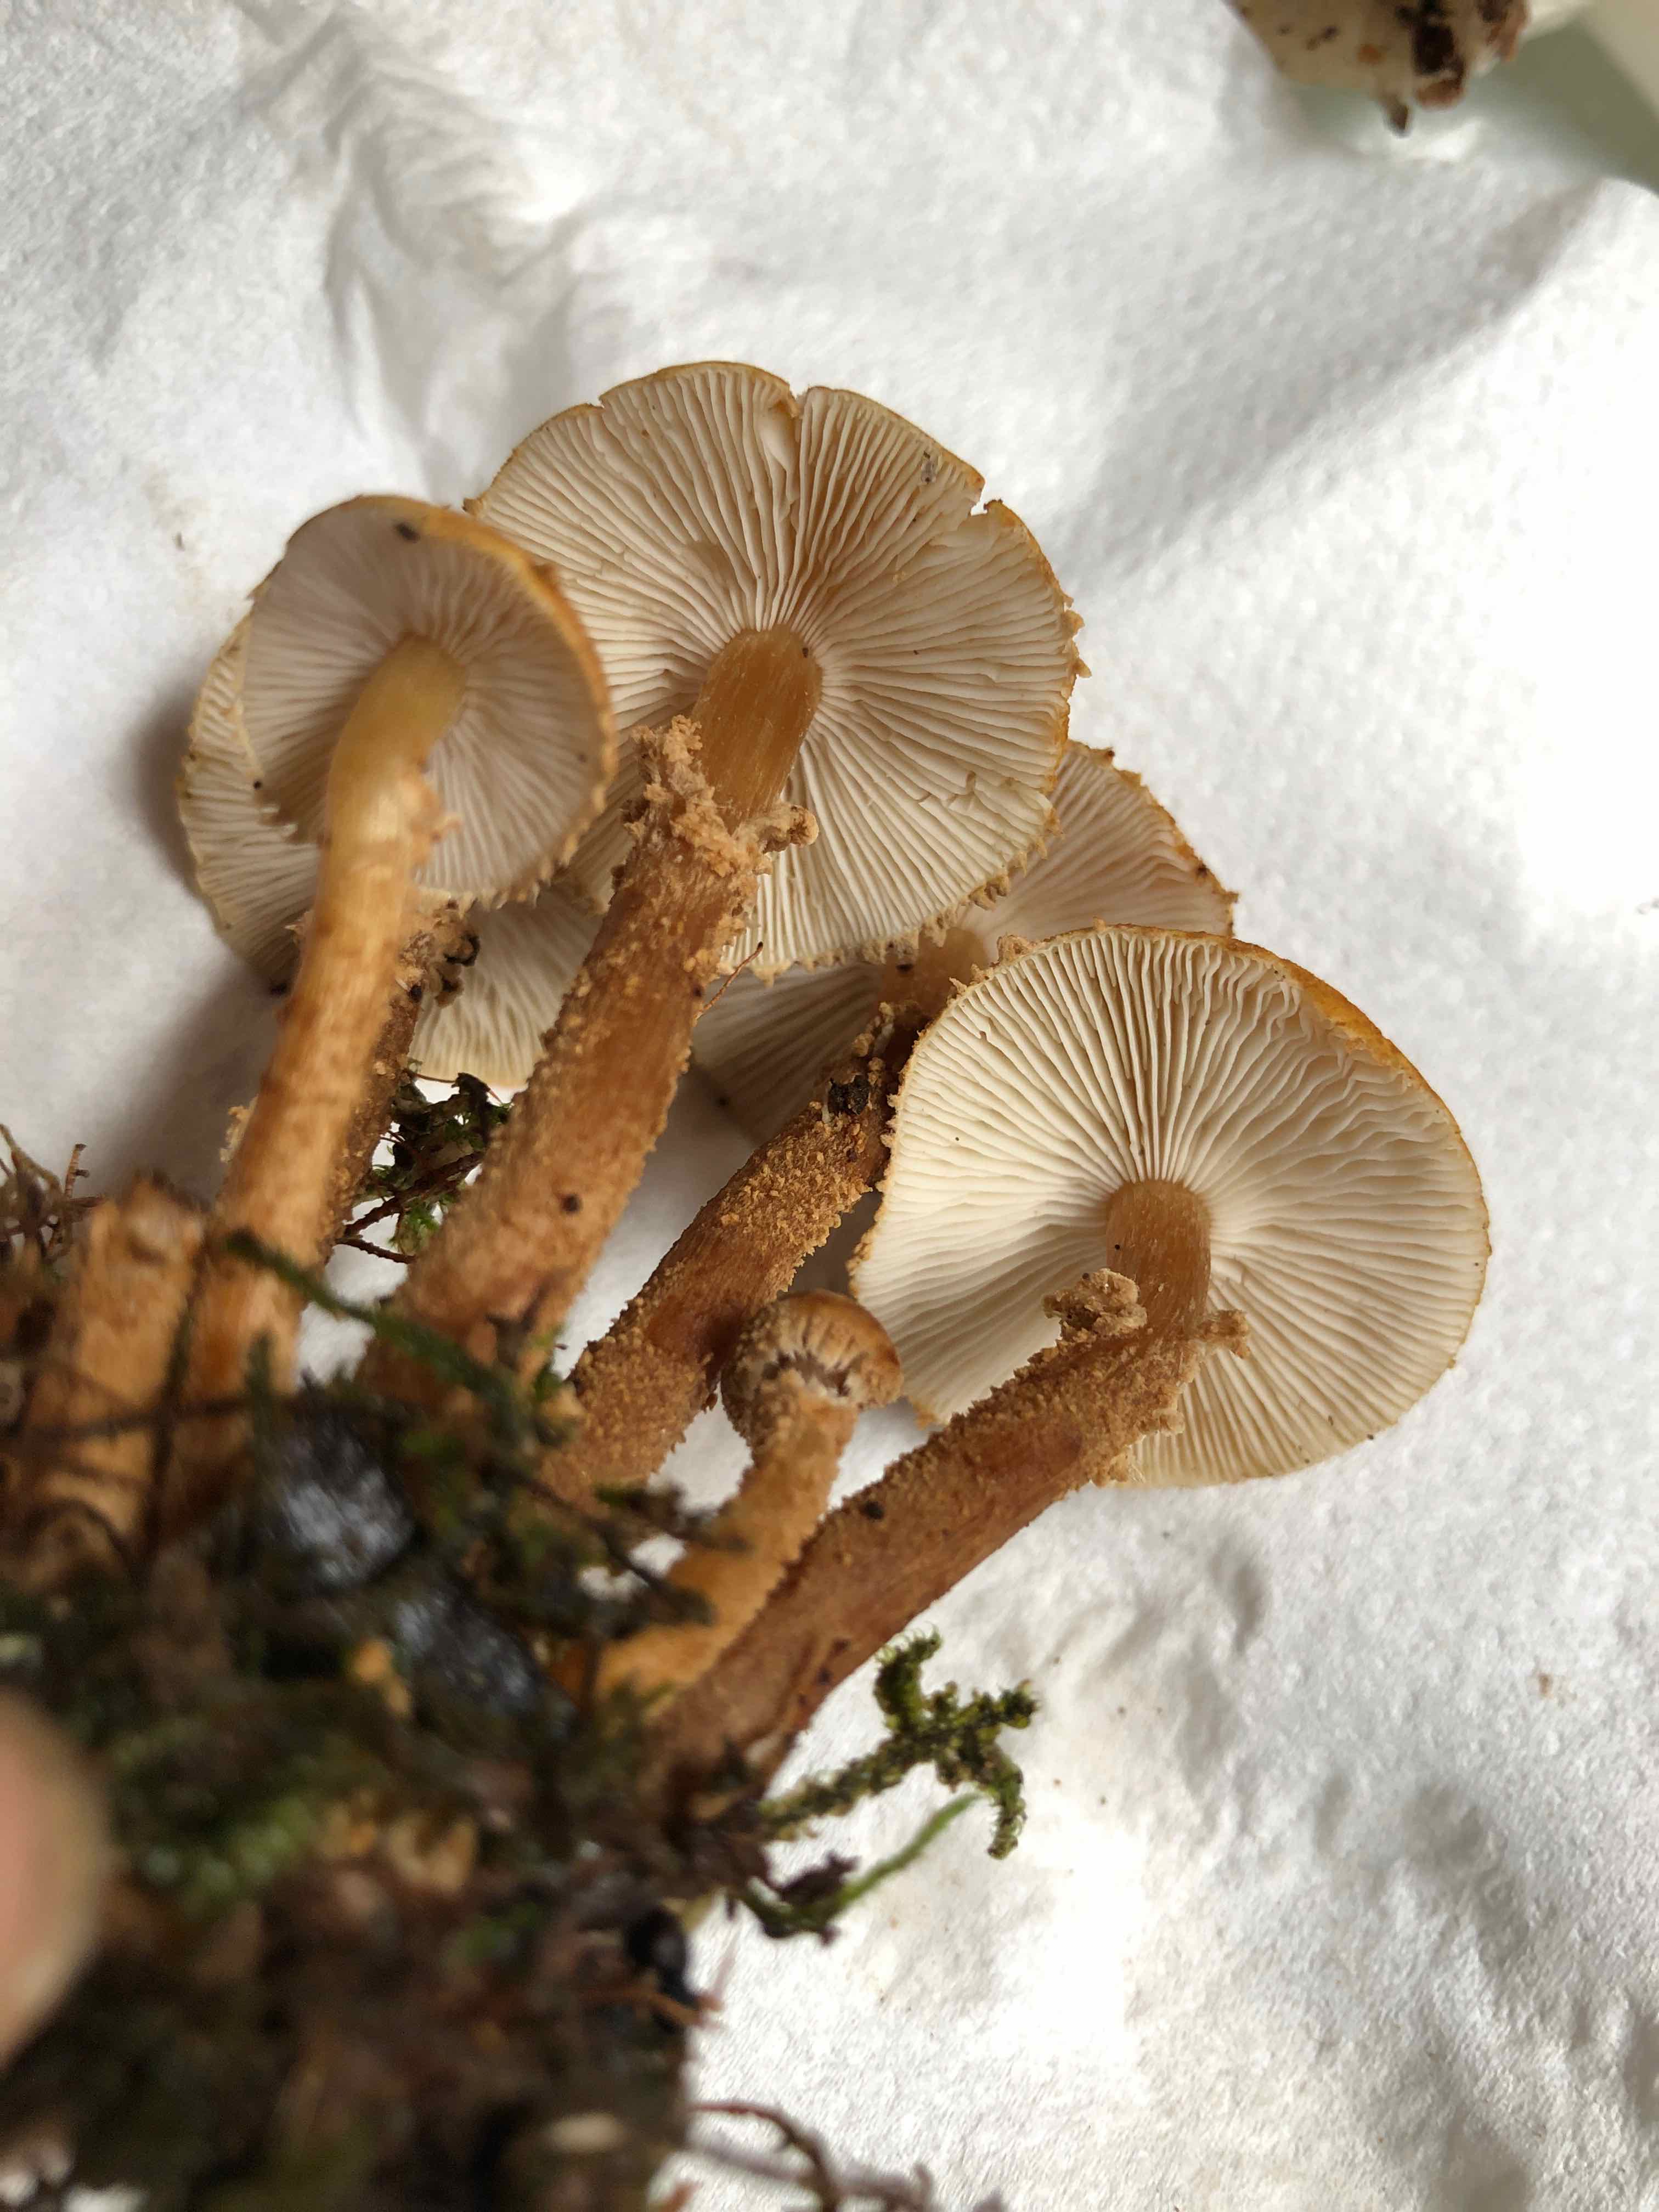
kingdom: Fungi
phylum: Basidiomycota
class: Agaricomycetes
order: Agaricales
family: Tricholomataceae
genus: Cystoderma
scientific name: Cystoderma amianthinum
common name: okkergul grynhat
